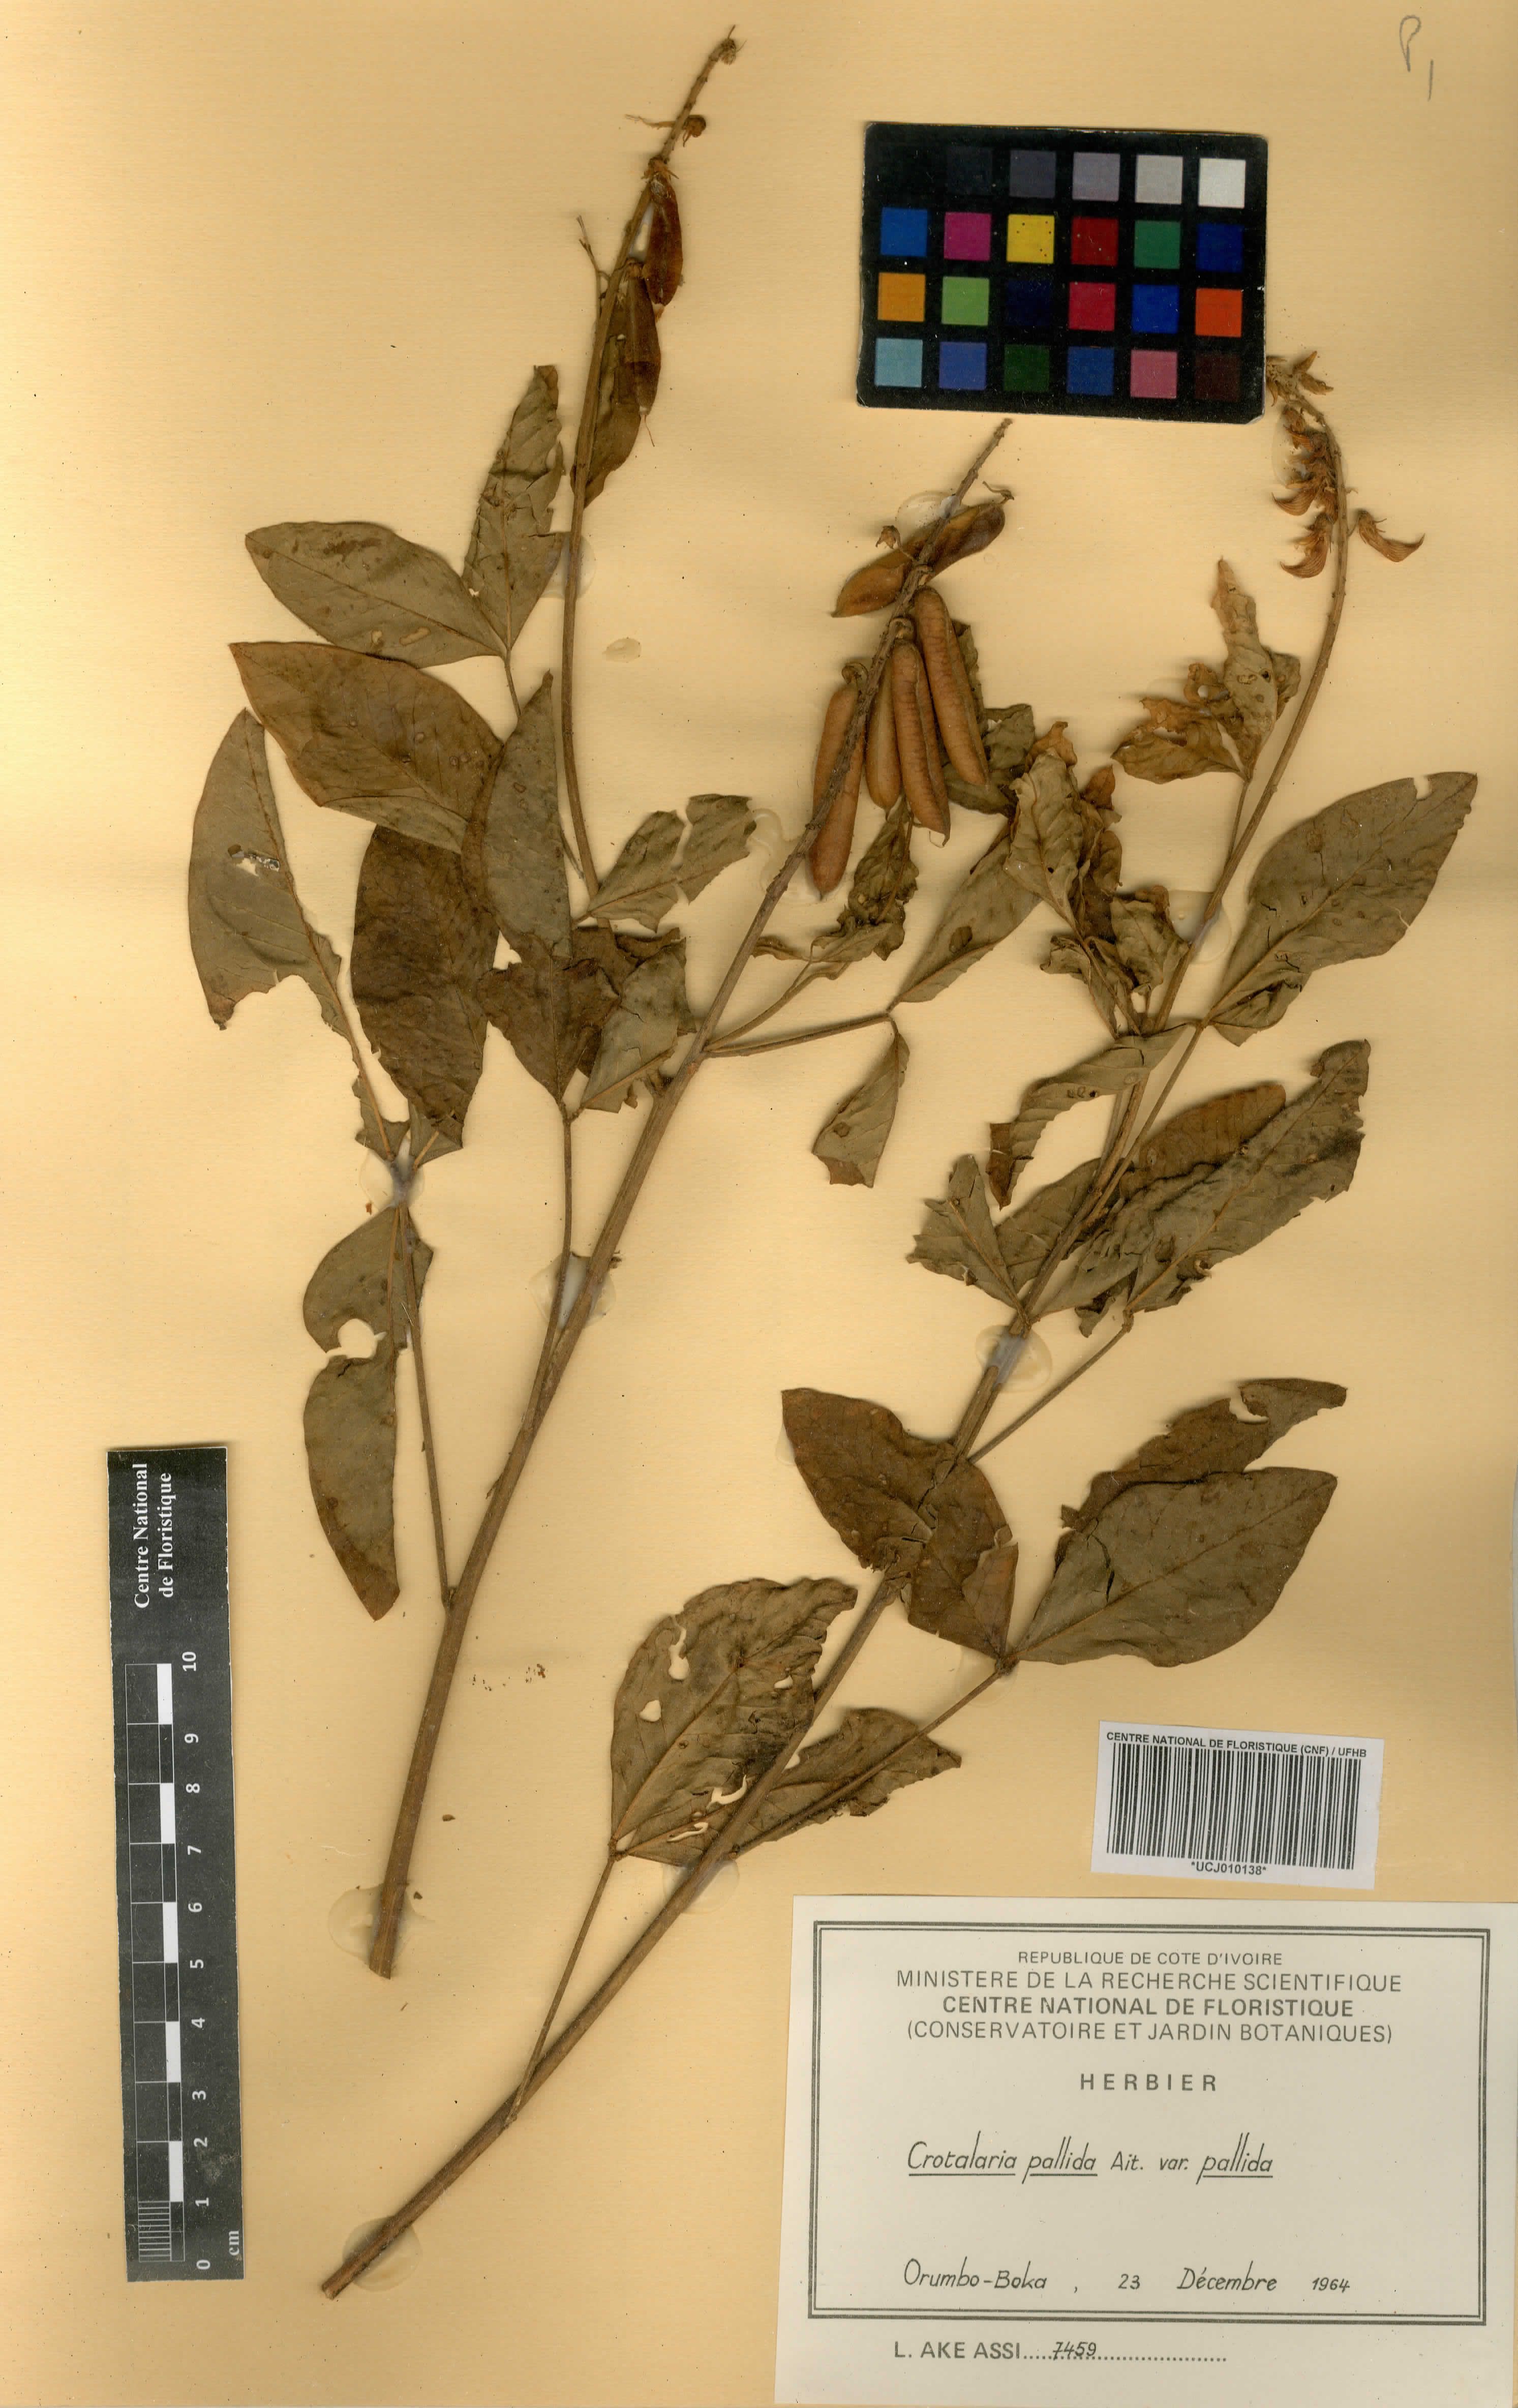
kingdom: Plantae
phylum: Tracheophyta
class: Magnoliopsida
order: Fabales
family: Fabaceae
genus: Crotalaria
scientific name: Crotalaria pallida
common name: Smooth rattlebox
